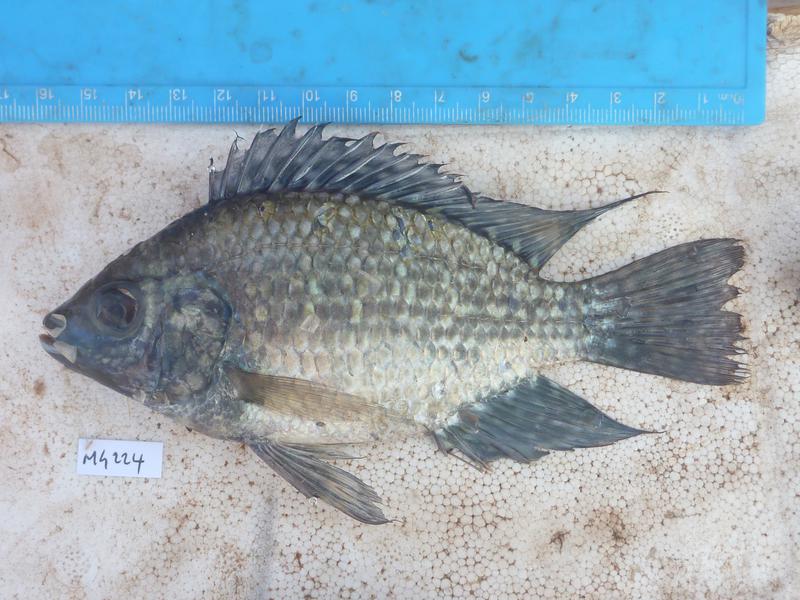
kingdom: Animalia
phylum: Chordata
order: Perciformes
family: Cichlidae
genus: Oreochromis
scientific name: Oreochromis leucostictus
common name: Blue spotted tilapia
